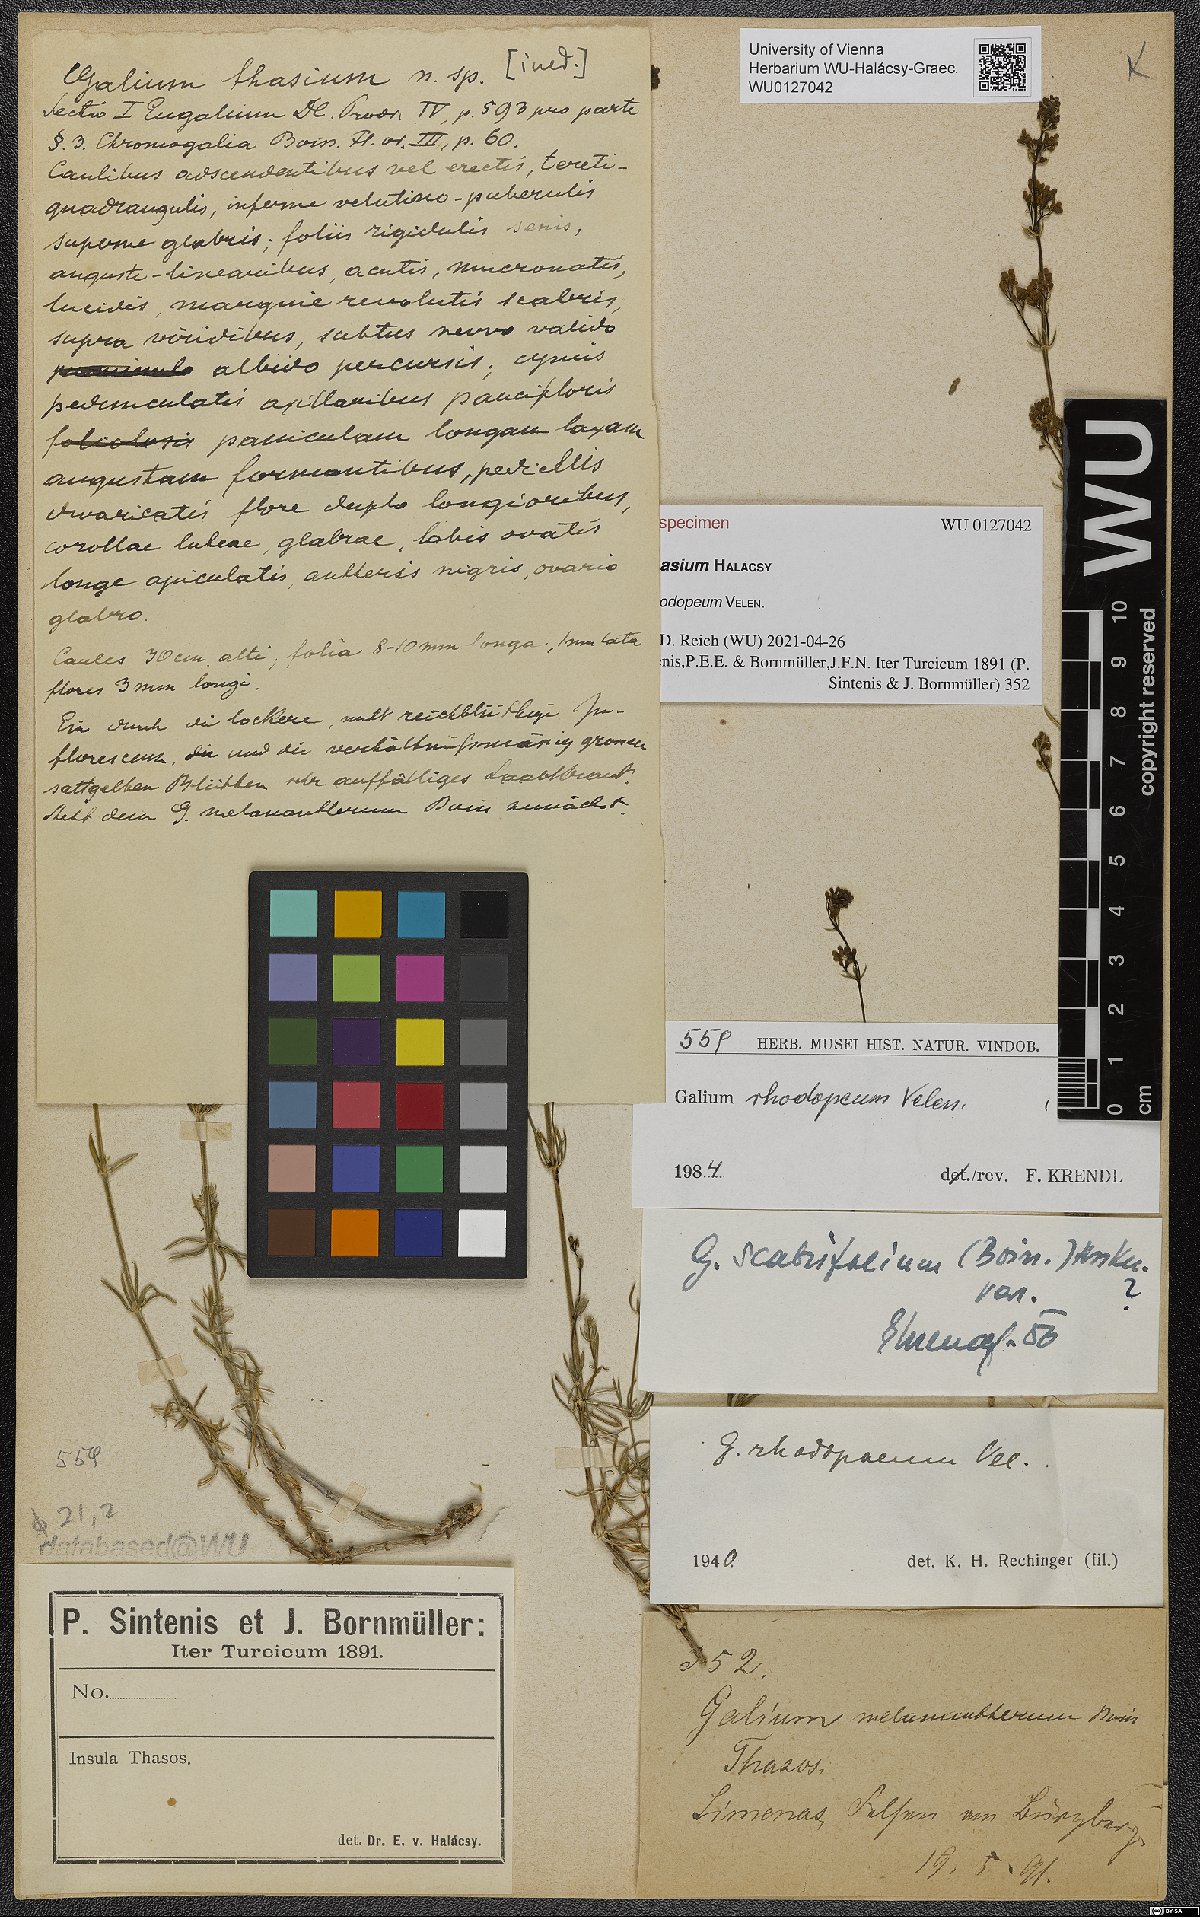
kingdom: Plantae
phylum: Tracheophyta
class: Magnoliopsida
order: Gentianales
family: Rubiaceae
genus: Galium
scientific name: Galium thasium
